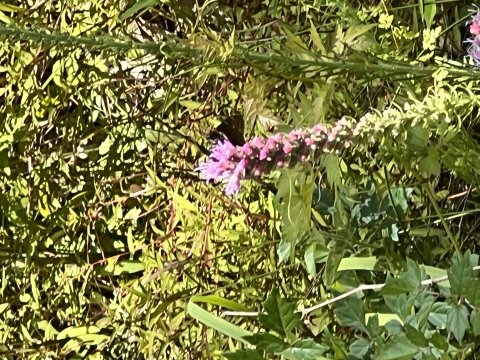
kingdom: Animalia
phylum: Arthropoda
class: Insecta
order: Lepidoptera
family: Hesperiidae
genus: Autochton
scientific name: Autochton
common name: Northern Cloudywing
